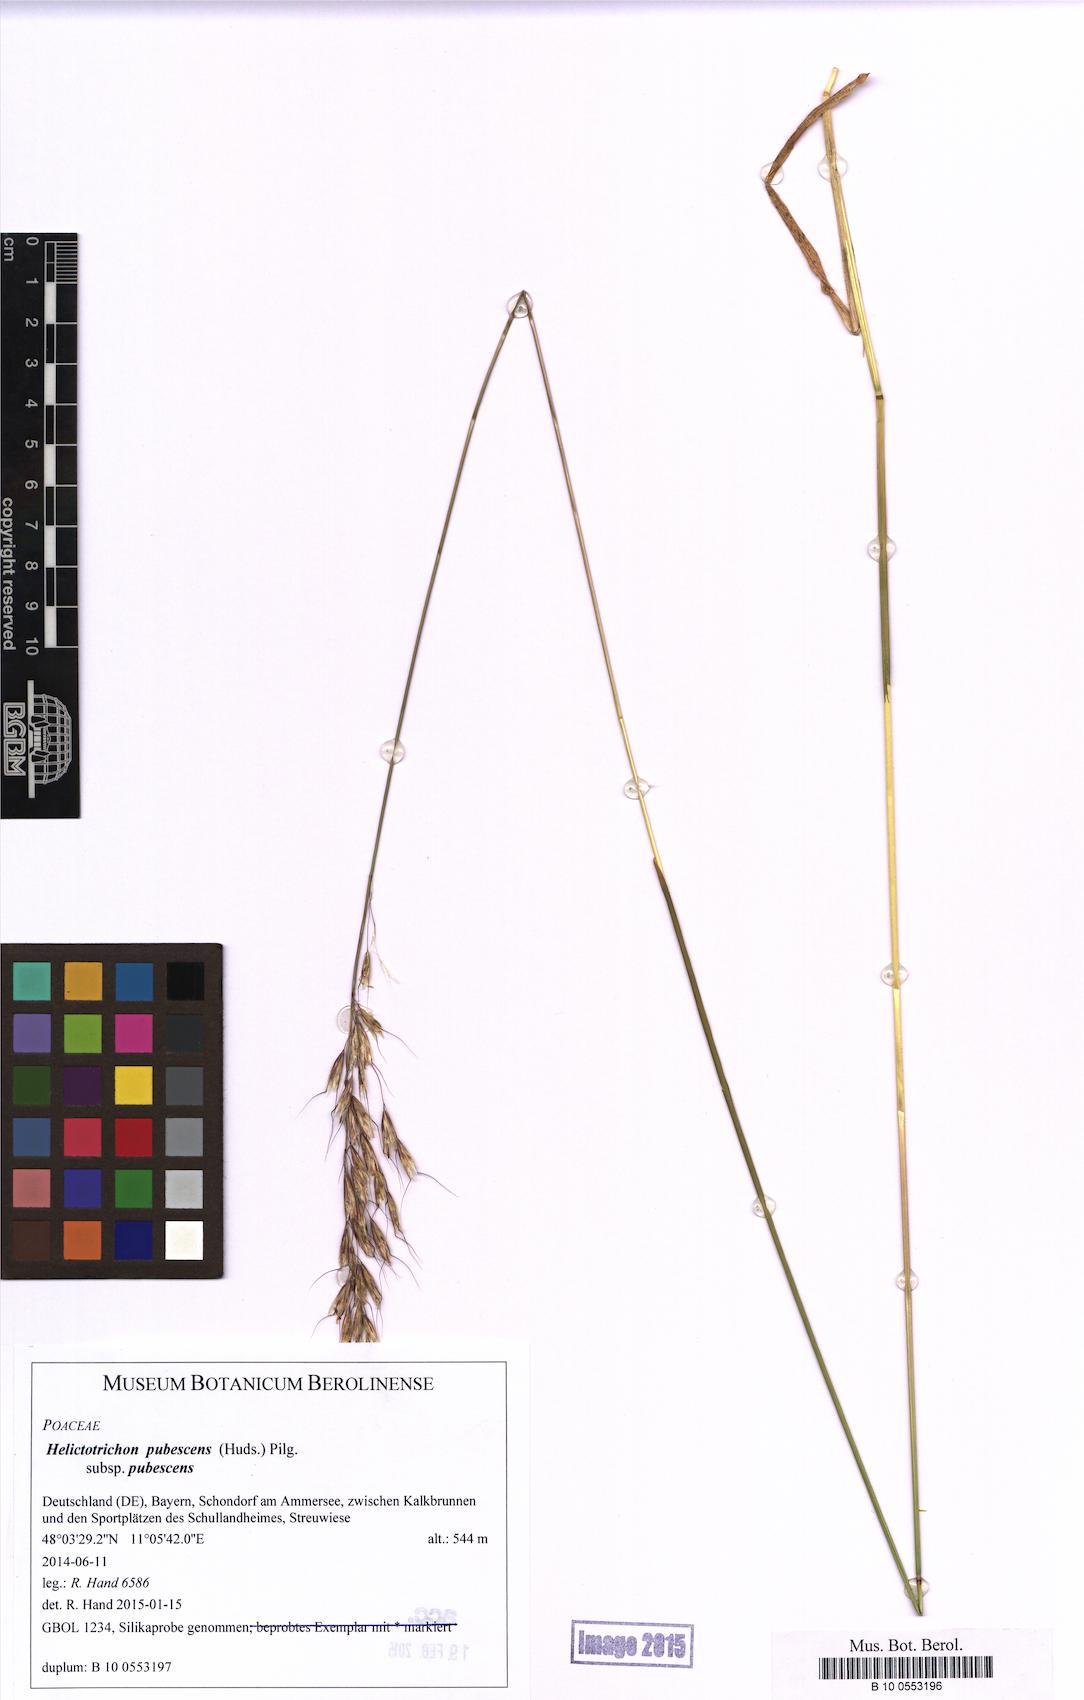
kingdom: Plantae
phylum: Tracheophyta
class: Liliopsida
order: Poales
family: Poaceae
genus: Avenula
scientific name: Avenula pubescens
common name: Downy alpine oatgrass
